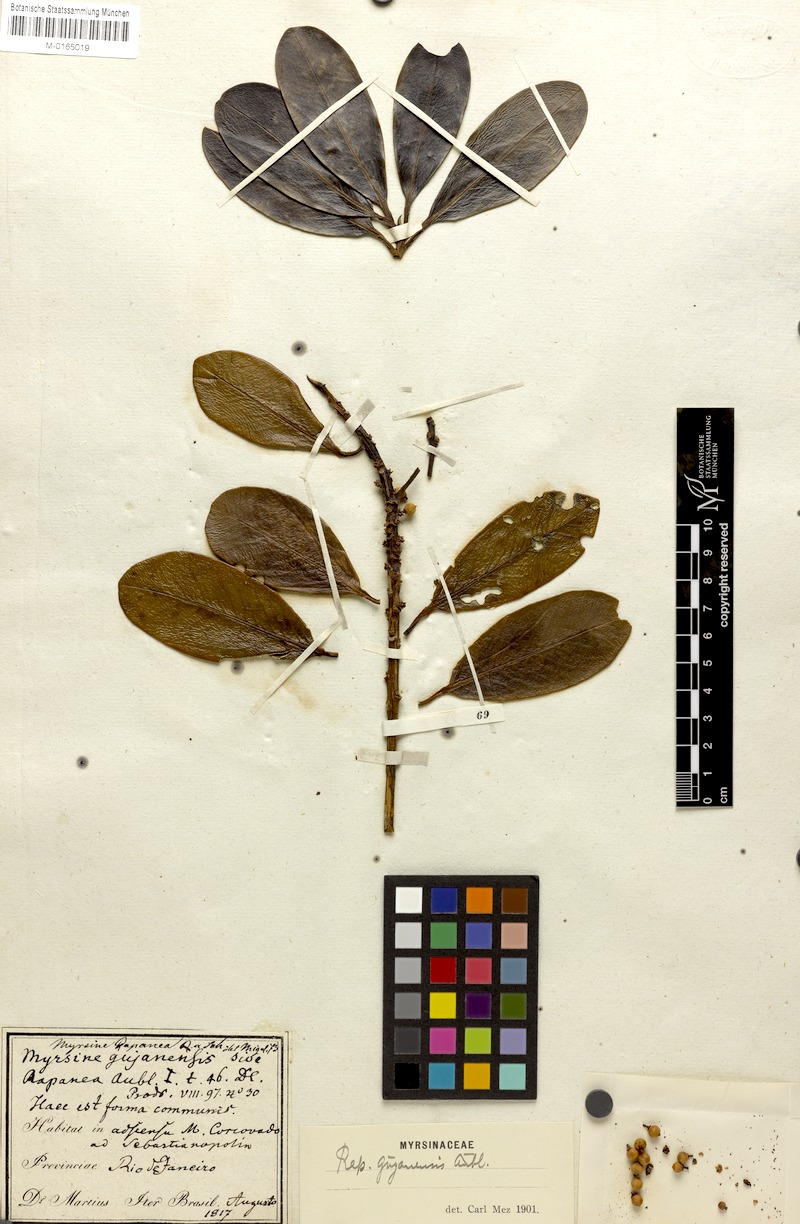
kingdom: Plantae
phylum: Tracheophyta
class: Magnoliopsida
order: Ericales
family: Primulaceae
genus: Myrsine
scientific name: Myrsine guianensis
